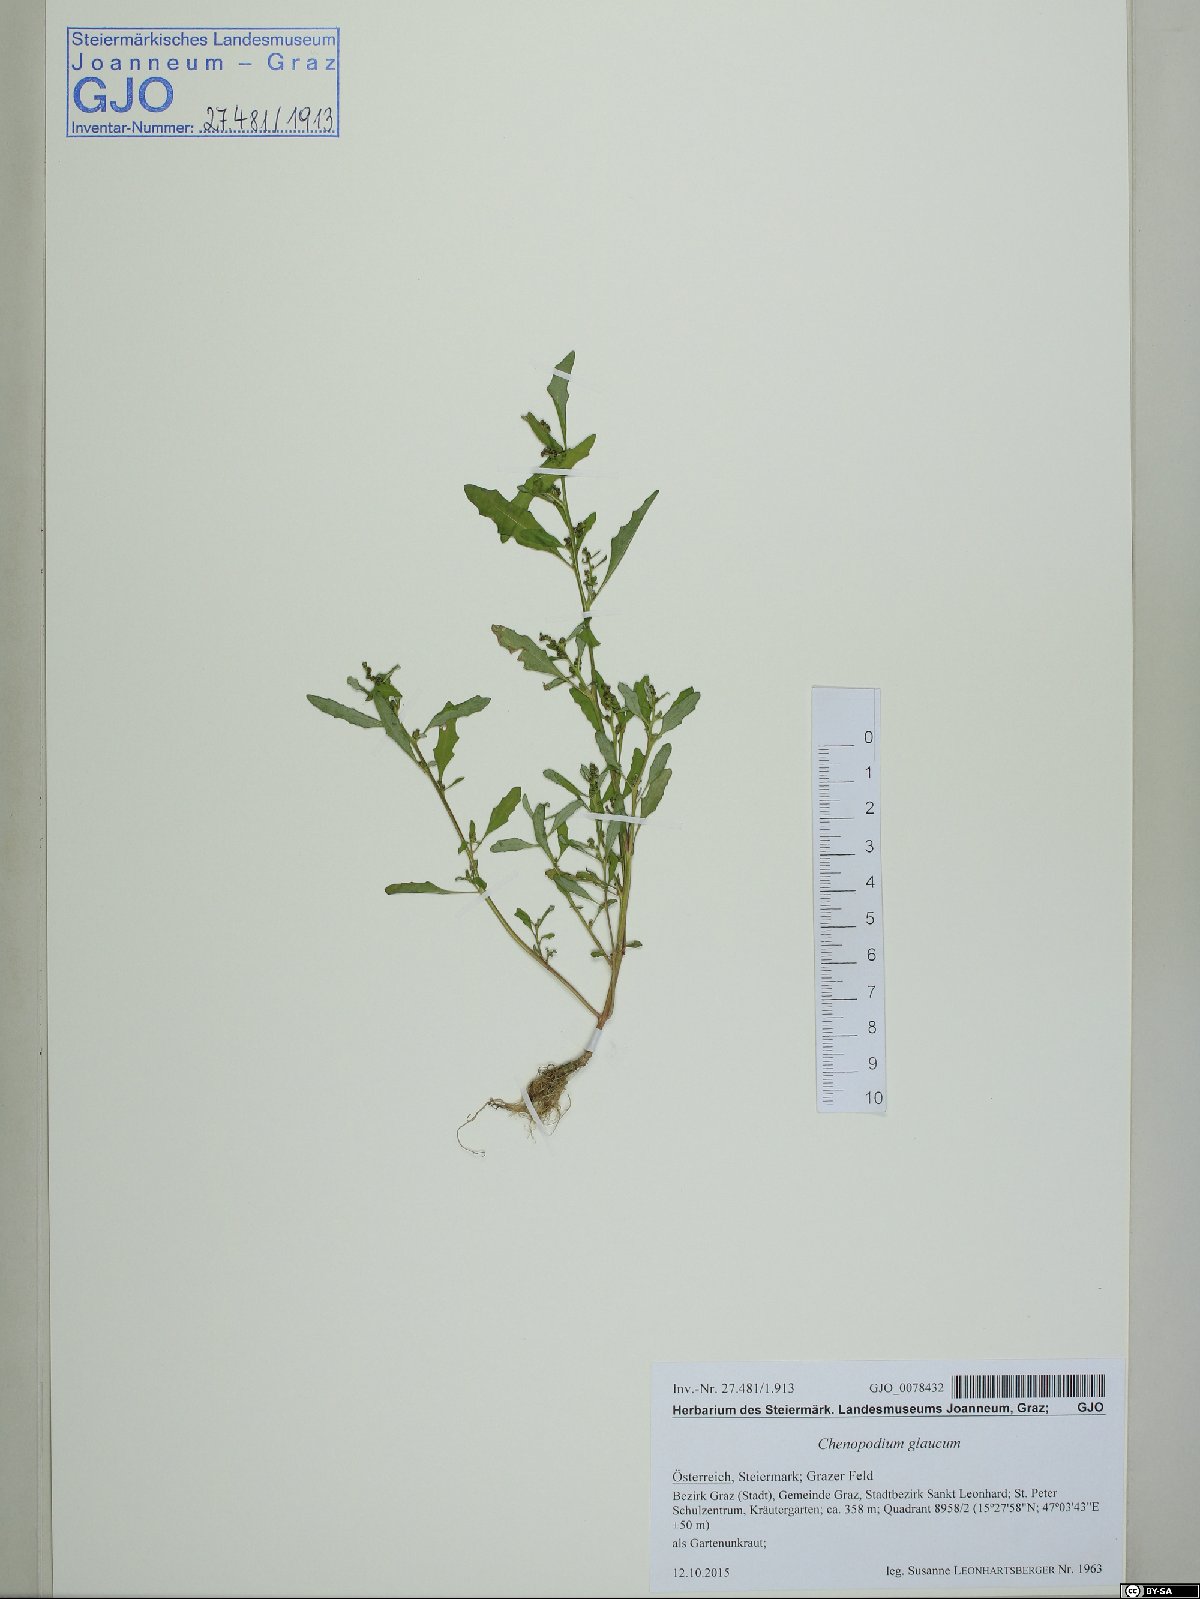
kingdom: Plantae
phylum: Tracheophyta
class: Magnoliopsida
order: Caryophyllales
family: Amaranthaceae
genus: Oxybasis
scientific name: Oxybasis glauca
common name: Glaucous goosefoot
